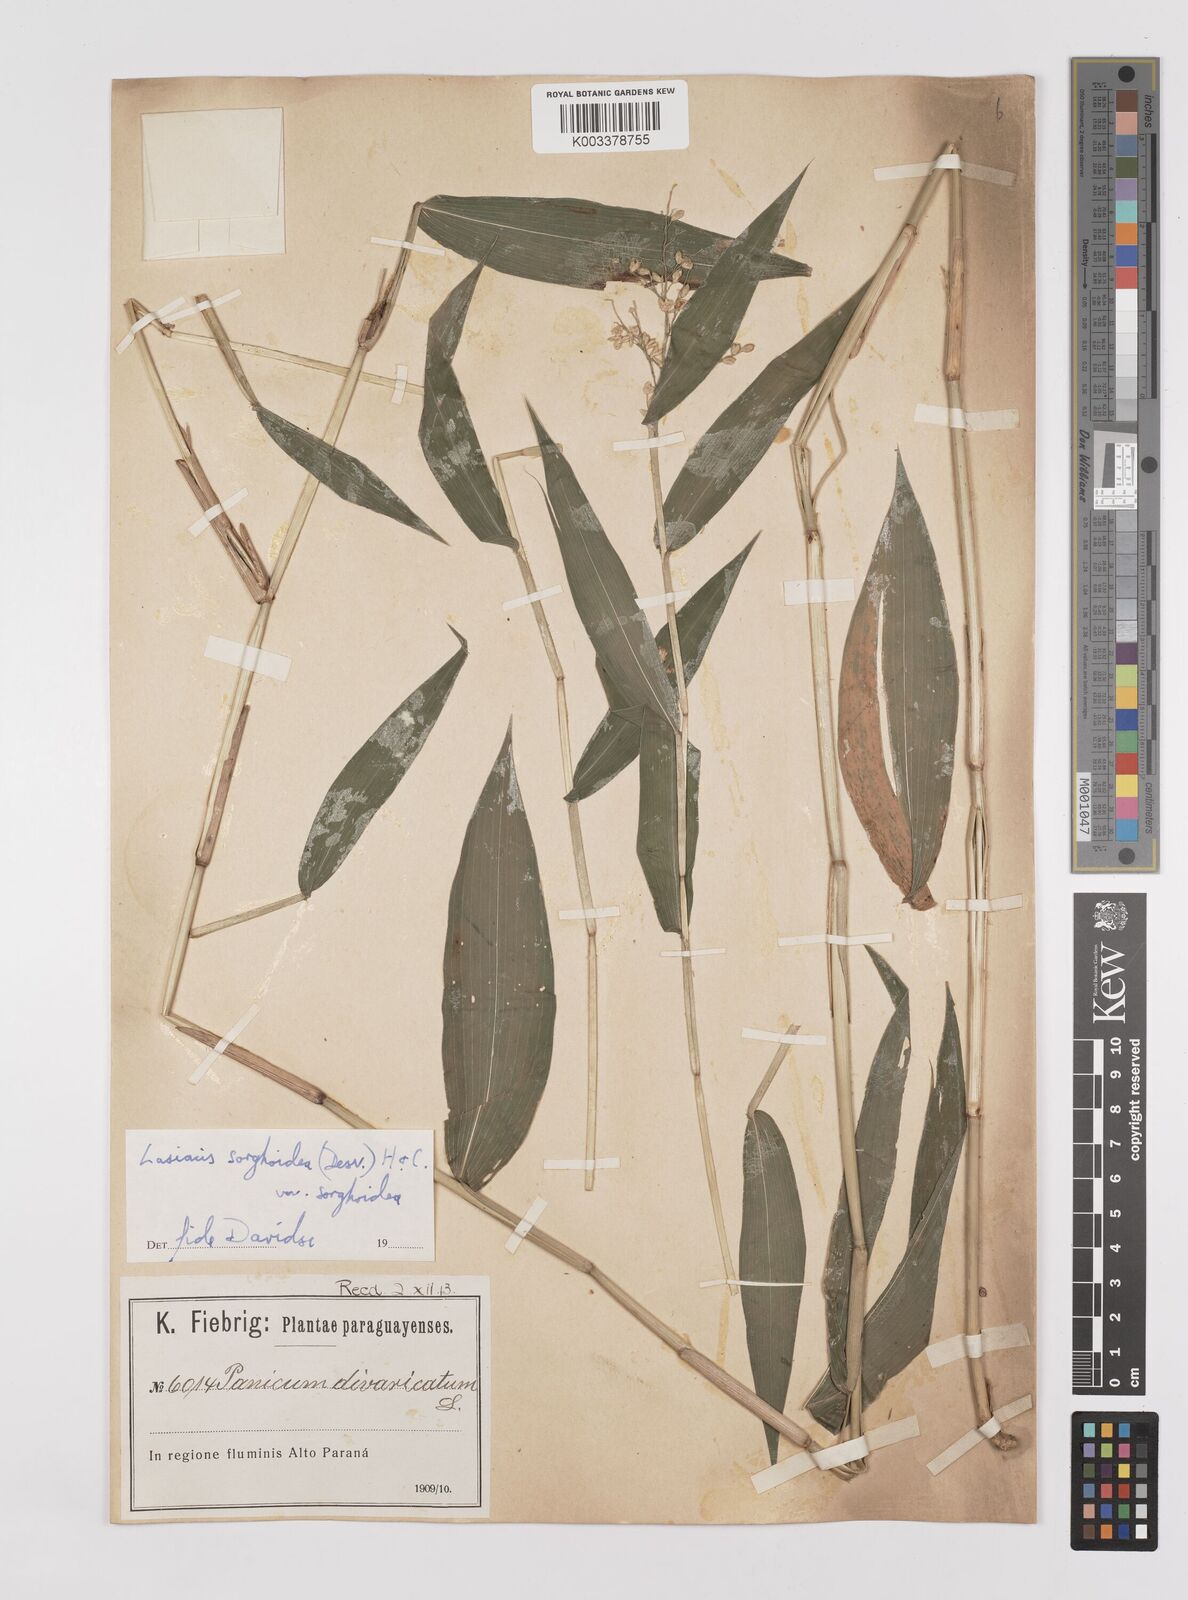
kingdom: Plantae
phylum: Tracheophyta
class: Liliopsida
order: Poales
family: Poaceae
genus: Lasiacis
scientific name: Lasiacis maculata
